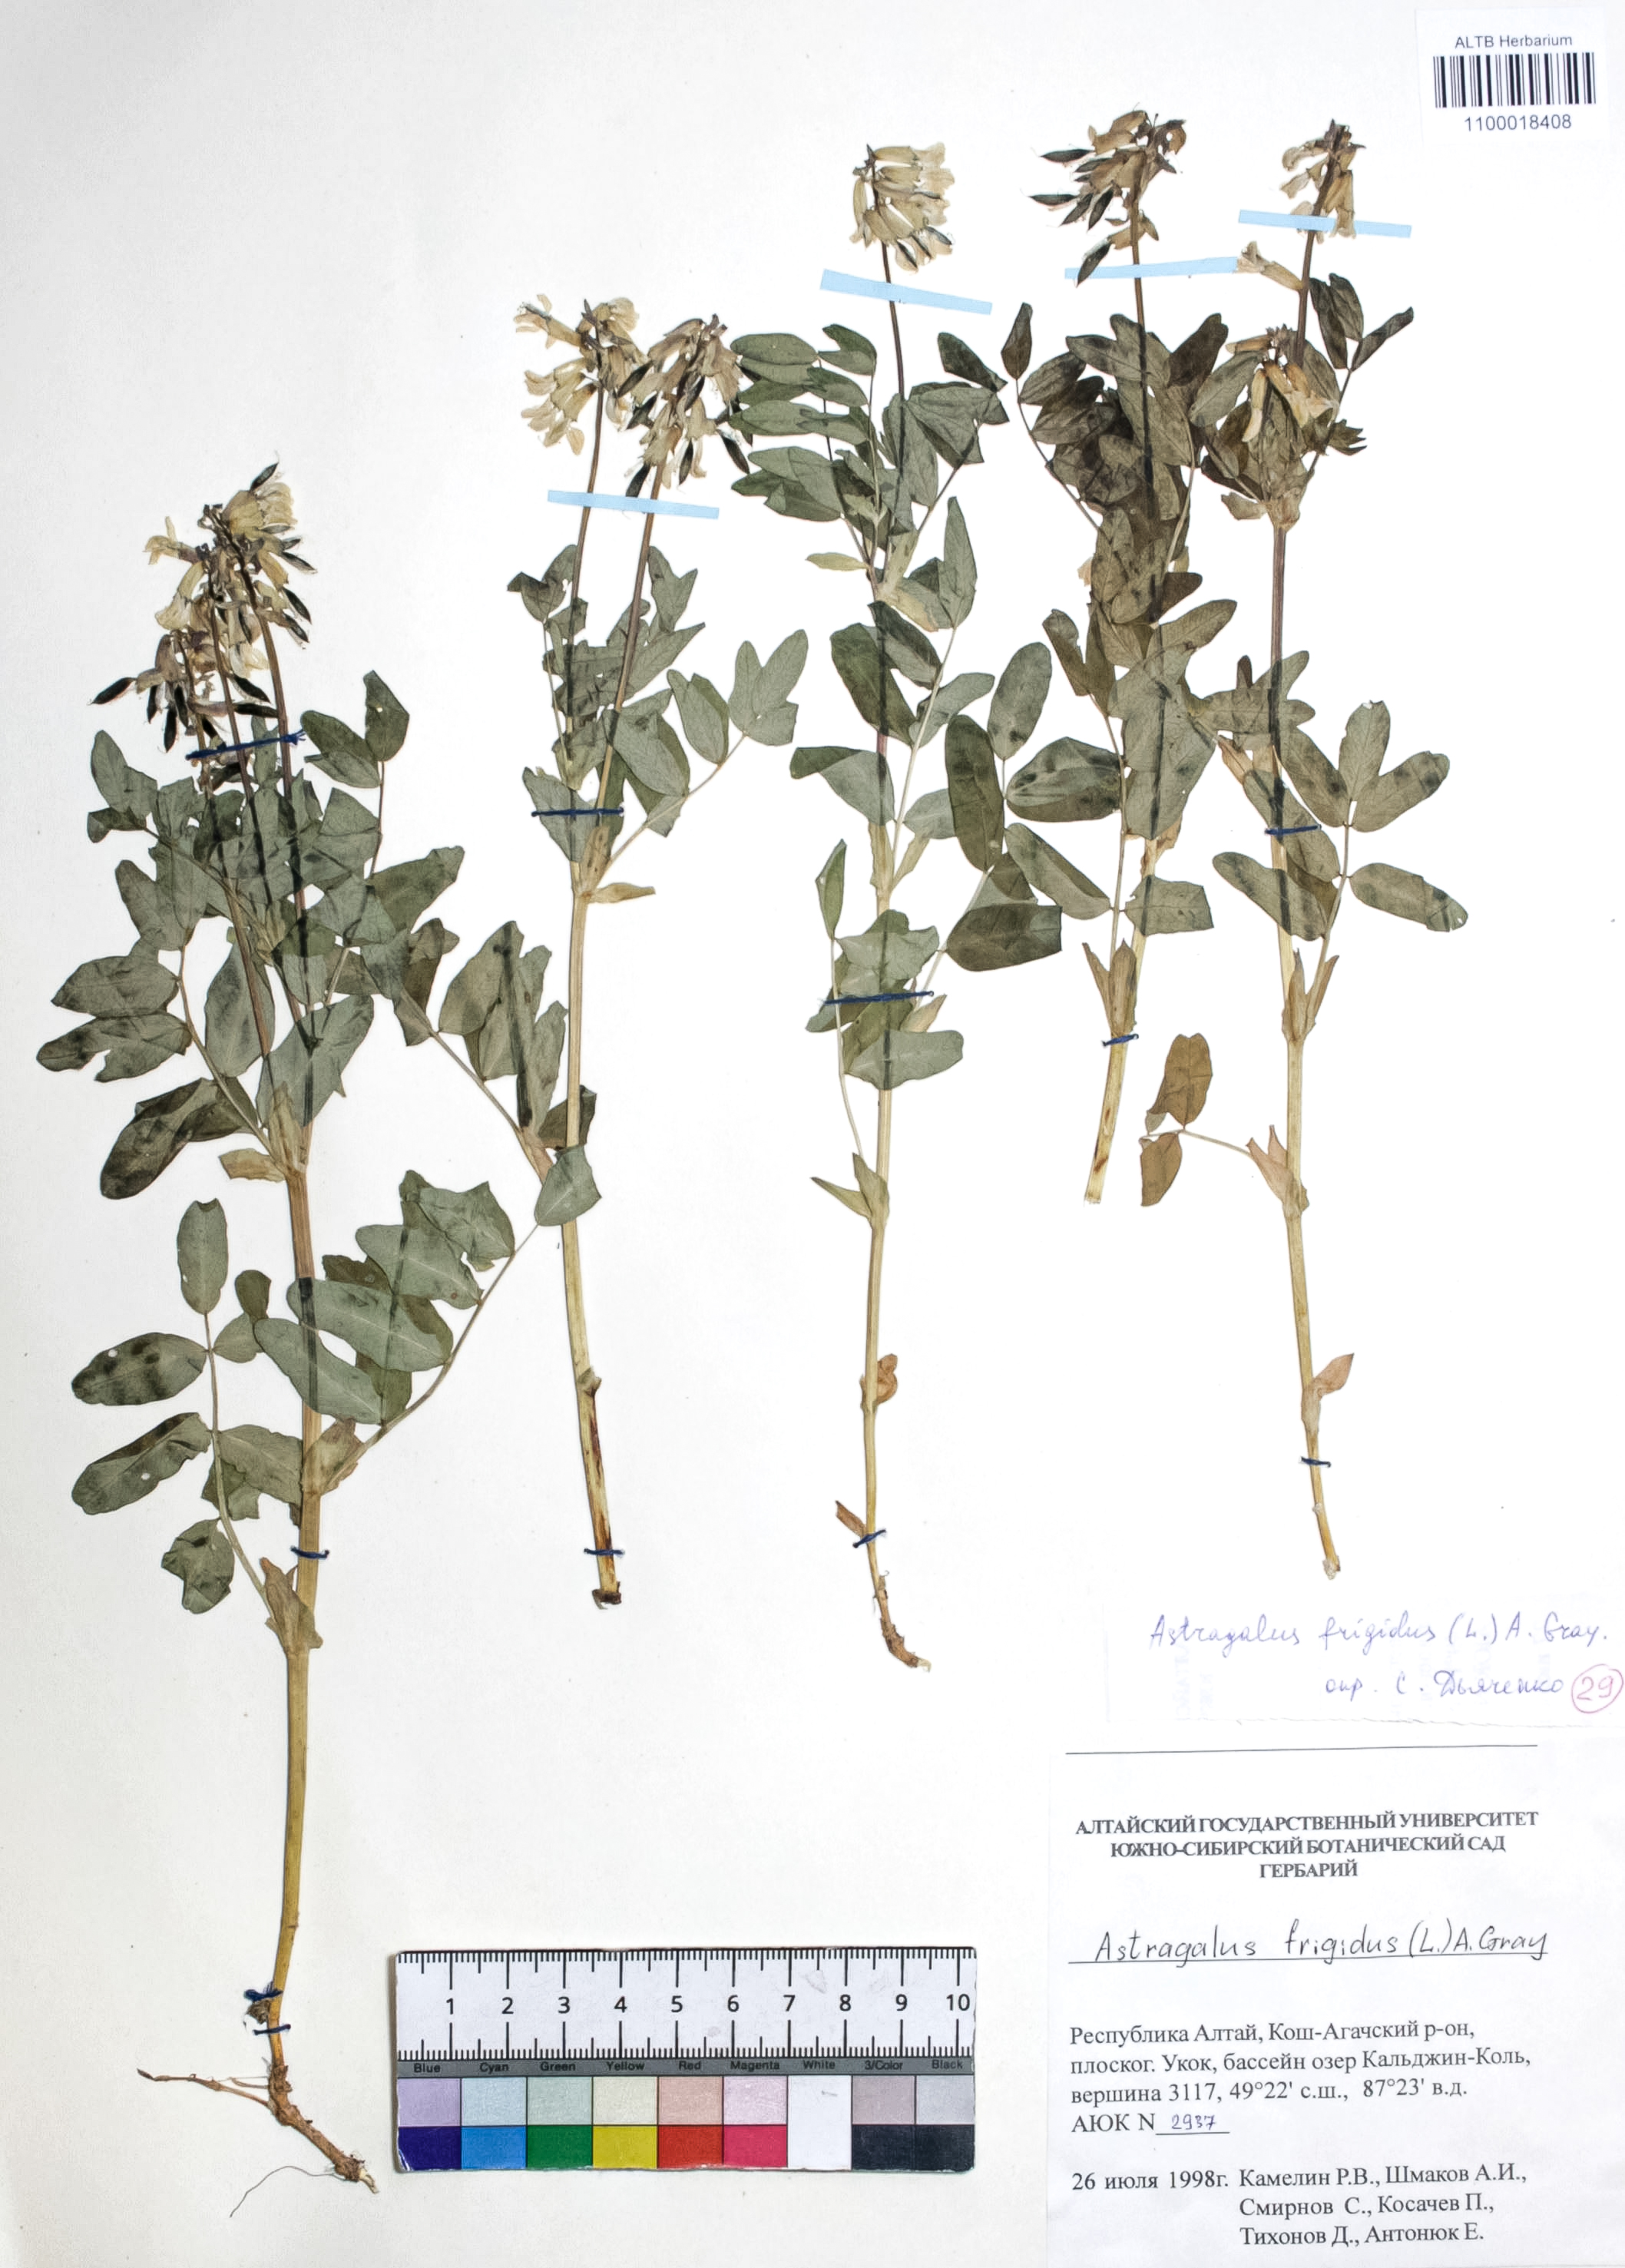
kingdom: Plantae
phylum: Tracheophyta
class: Magnoliopsida
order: Fabales
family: Fabaceae
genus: Astragalus
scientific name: Astragalus frigidus
